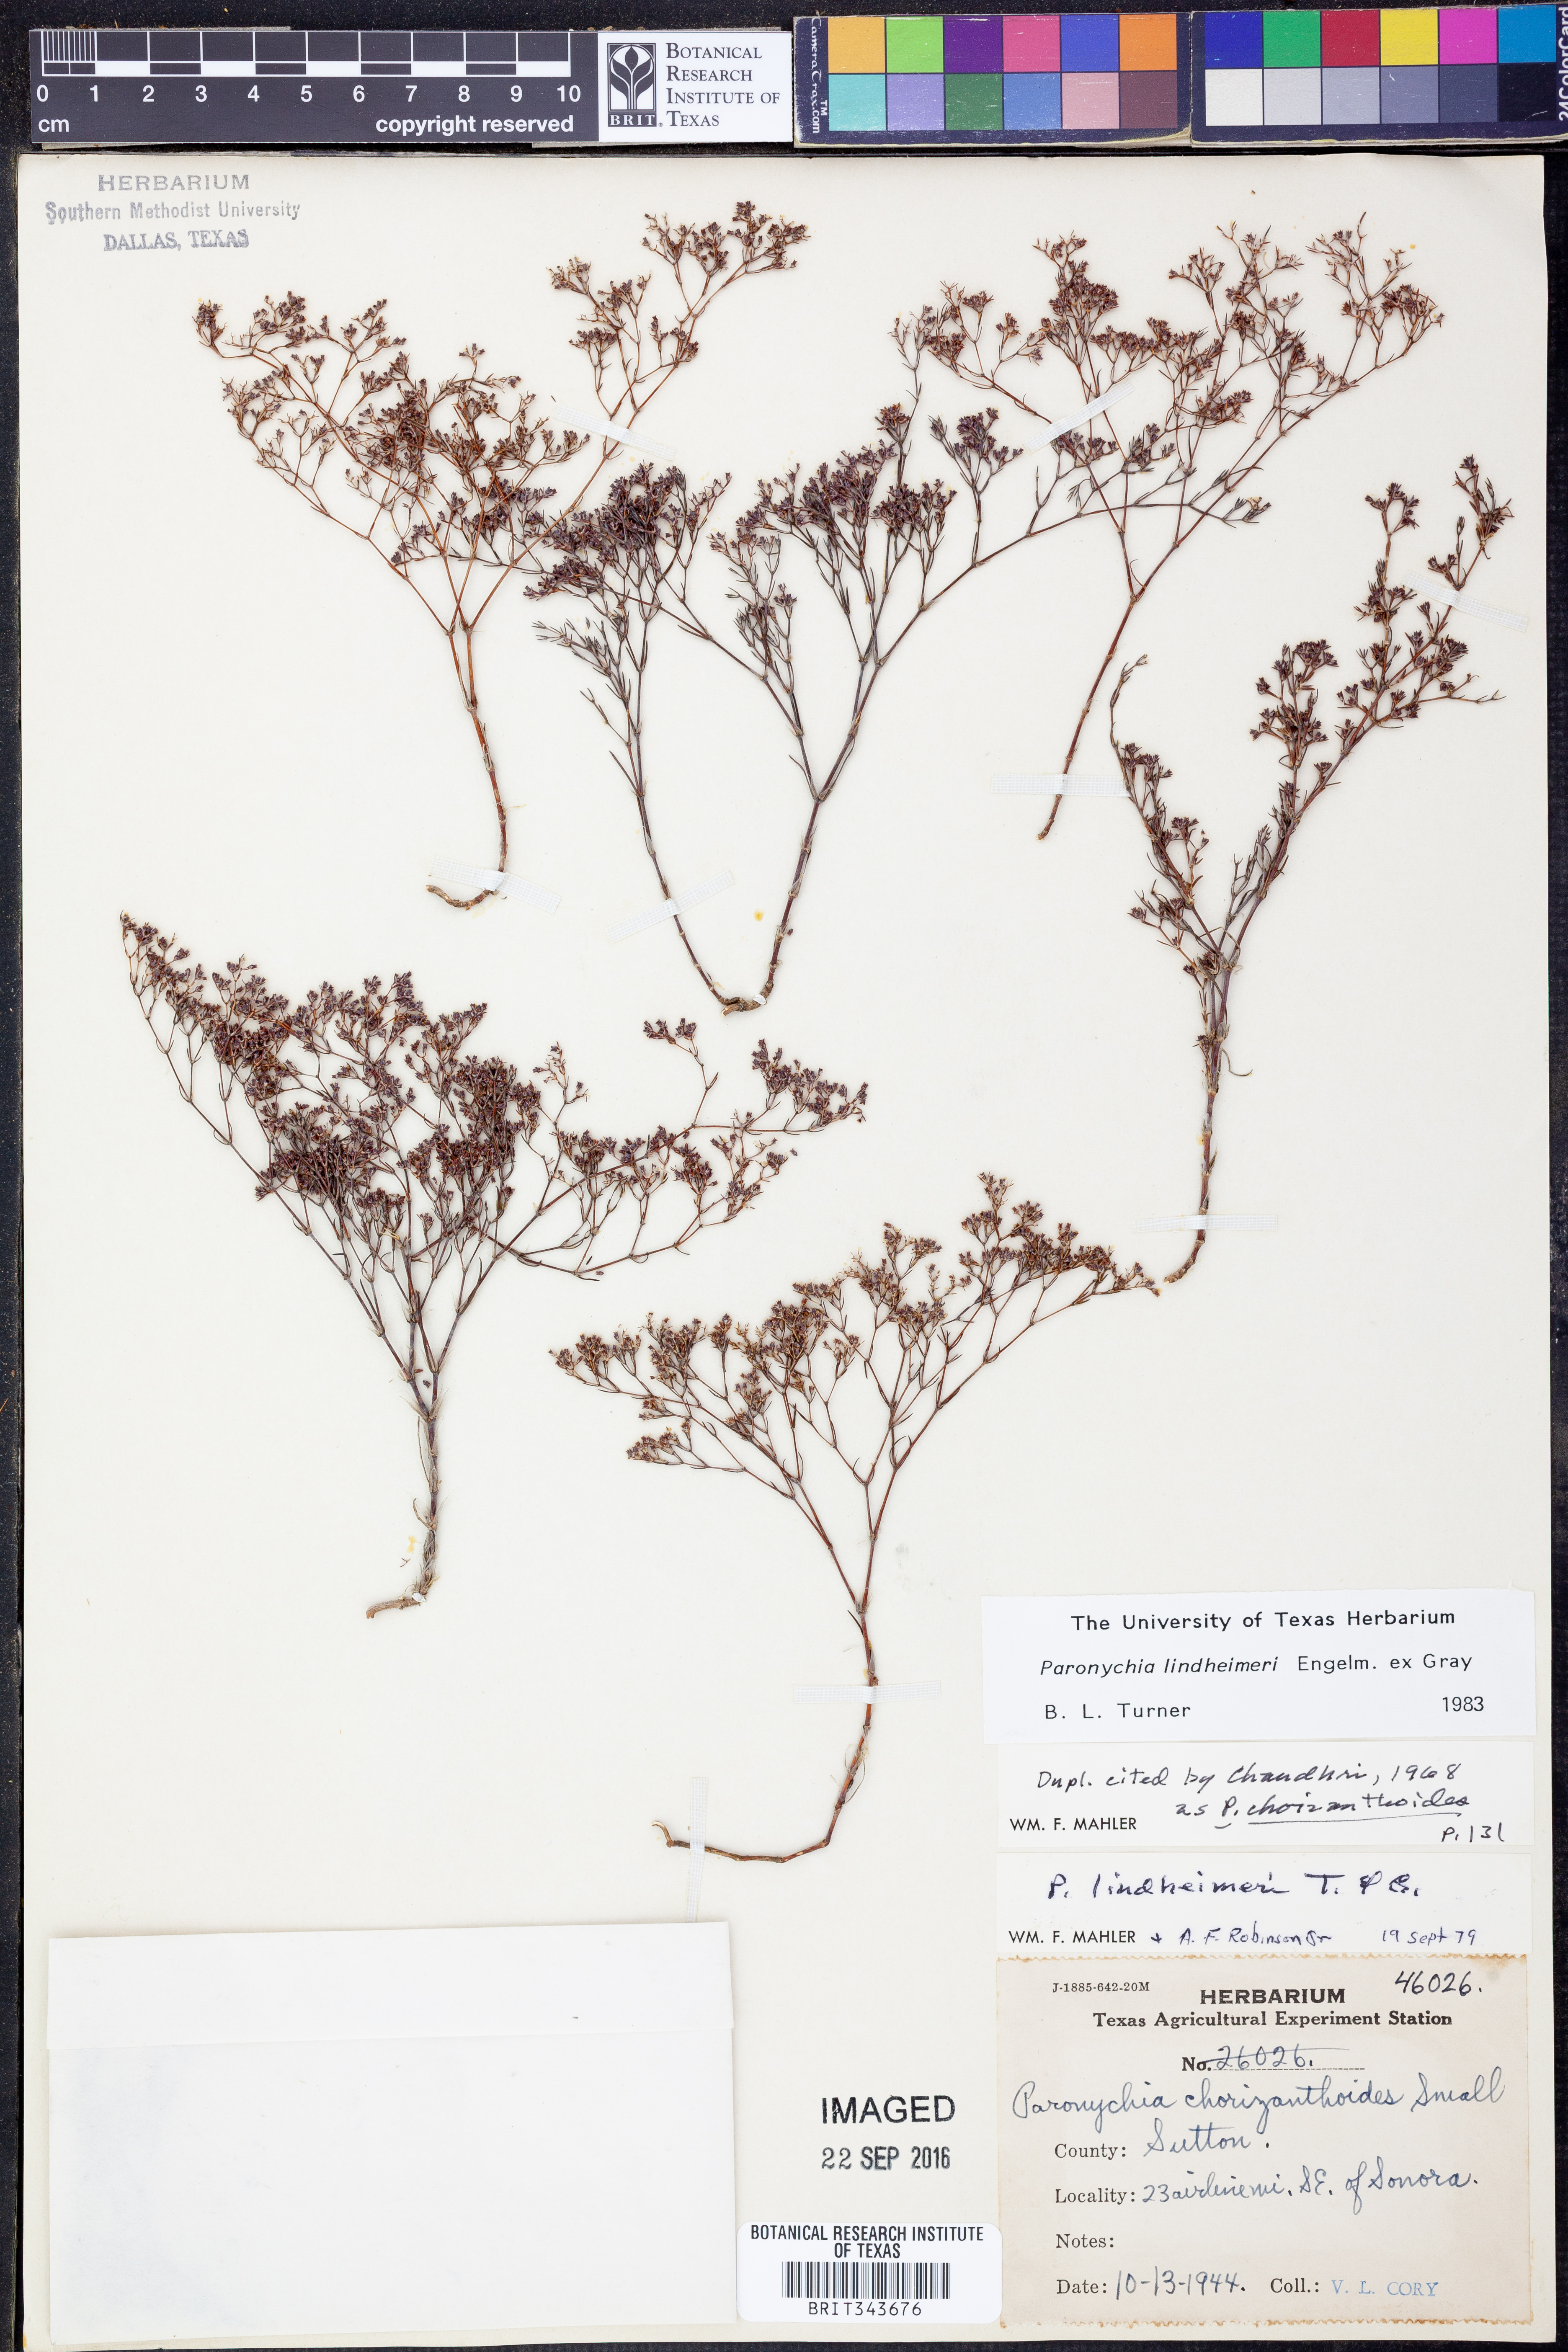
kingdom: Plantae
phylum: Tracheophyta
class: Magnoliopsida
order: Caryophyllales
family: Caryophyllaceae
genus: Paronychia
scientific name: Paronychia lindheimeri
